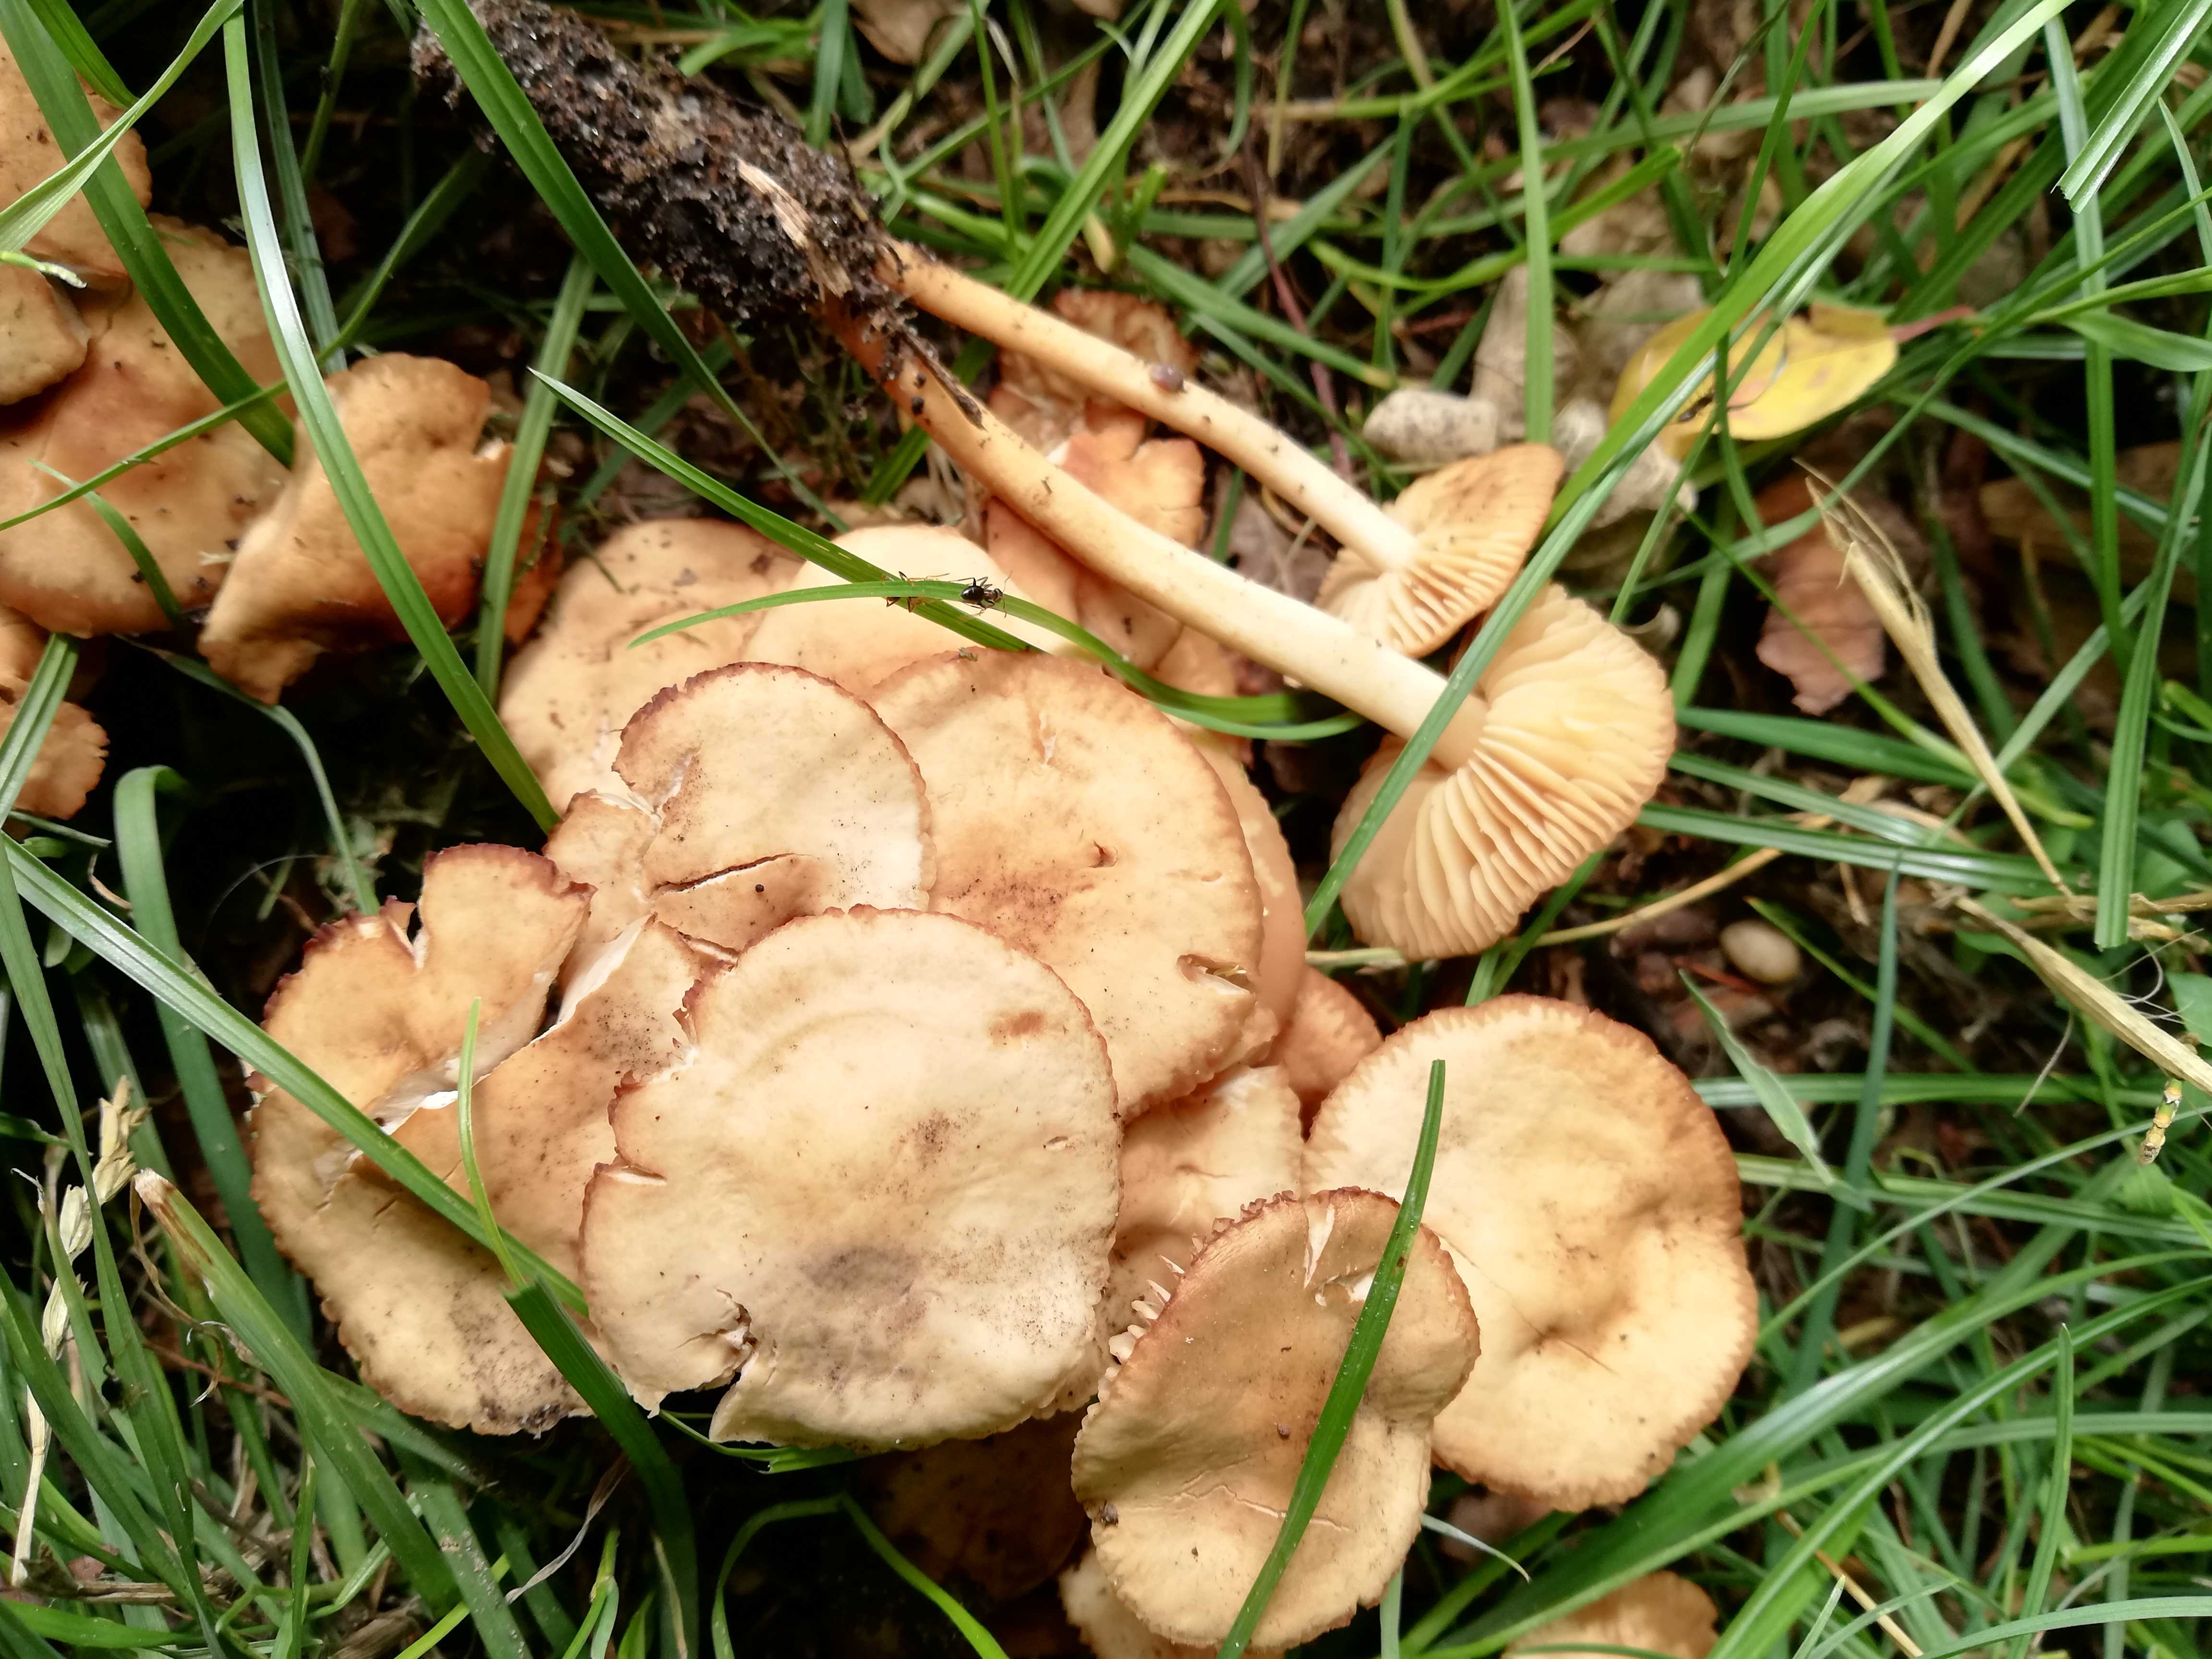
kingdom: Fungi
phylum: Basidiomycota
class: Agaricomycetes
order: Agaricales
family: Marasmiaceae
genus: Marasmius
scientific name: Marasmius oreades
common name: elledans-bruskhat
